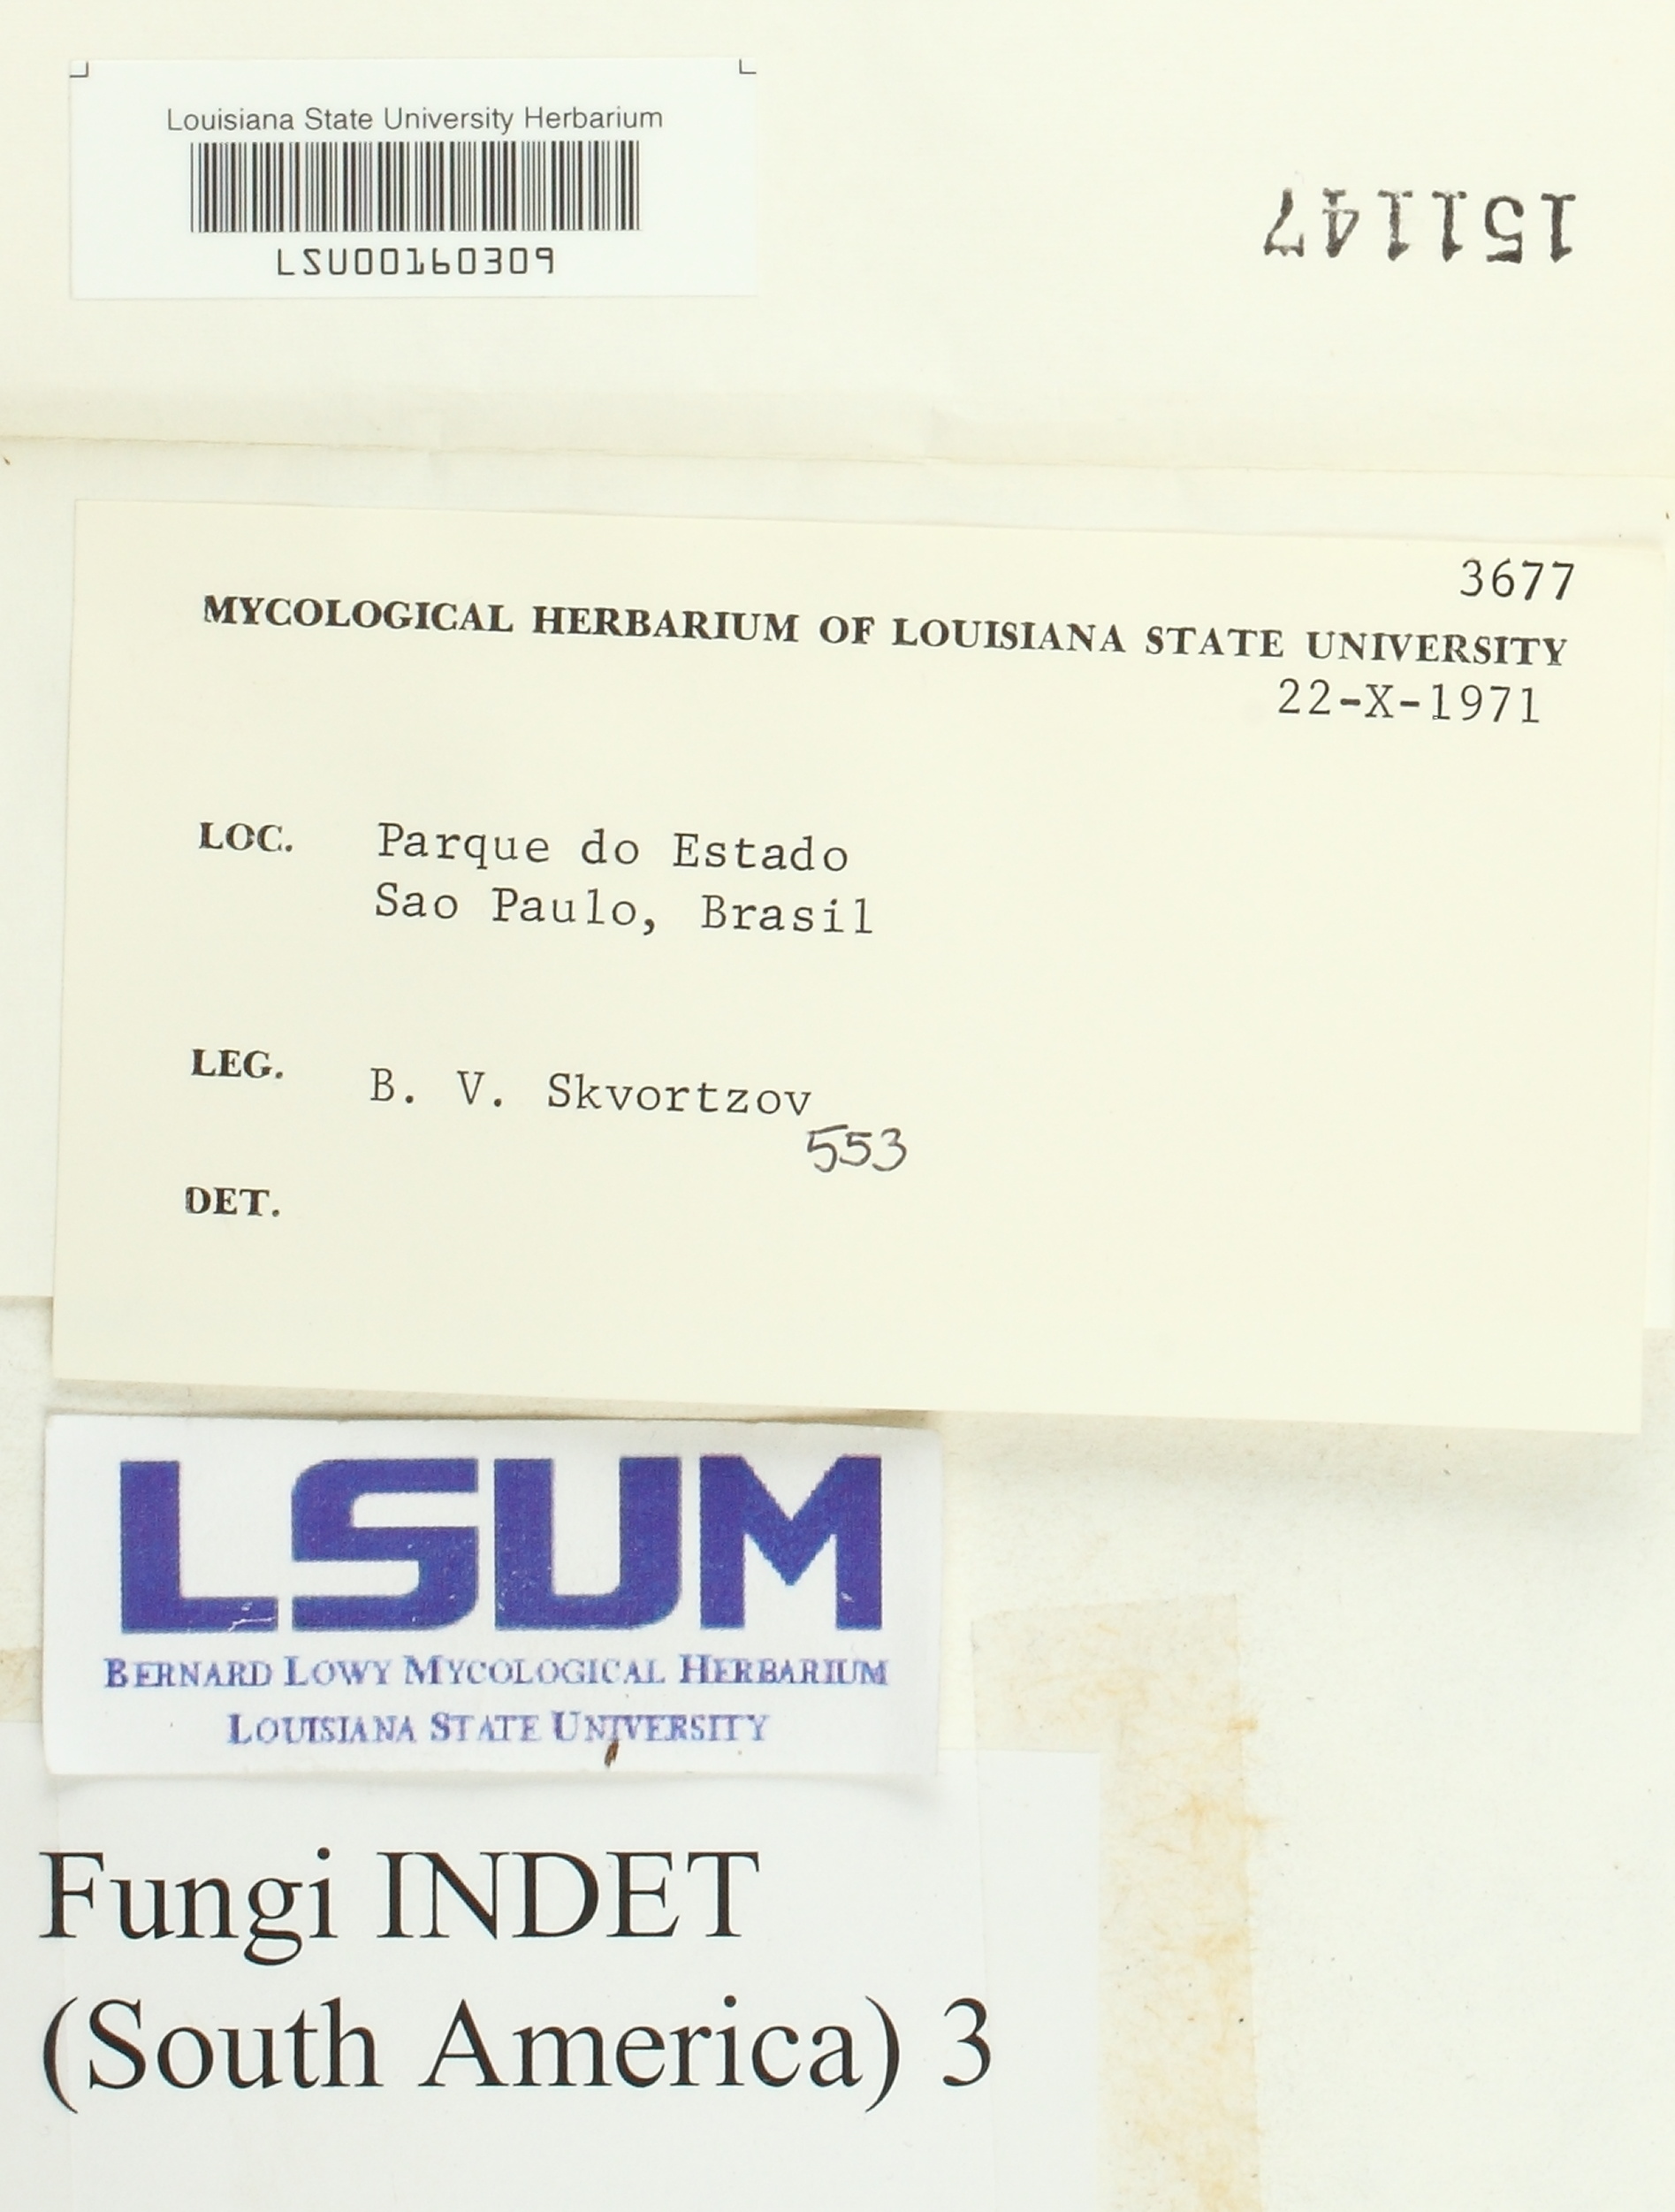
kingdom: Fungi
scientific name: Fungi
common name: Fungi
